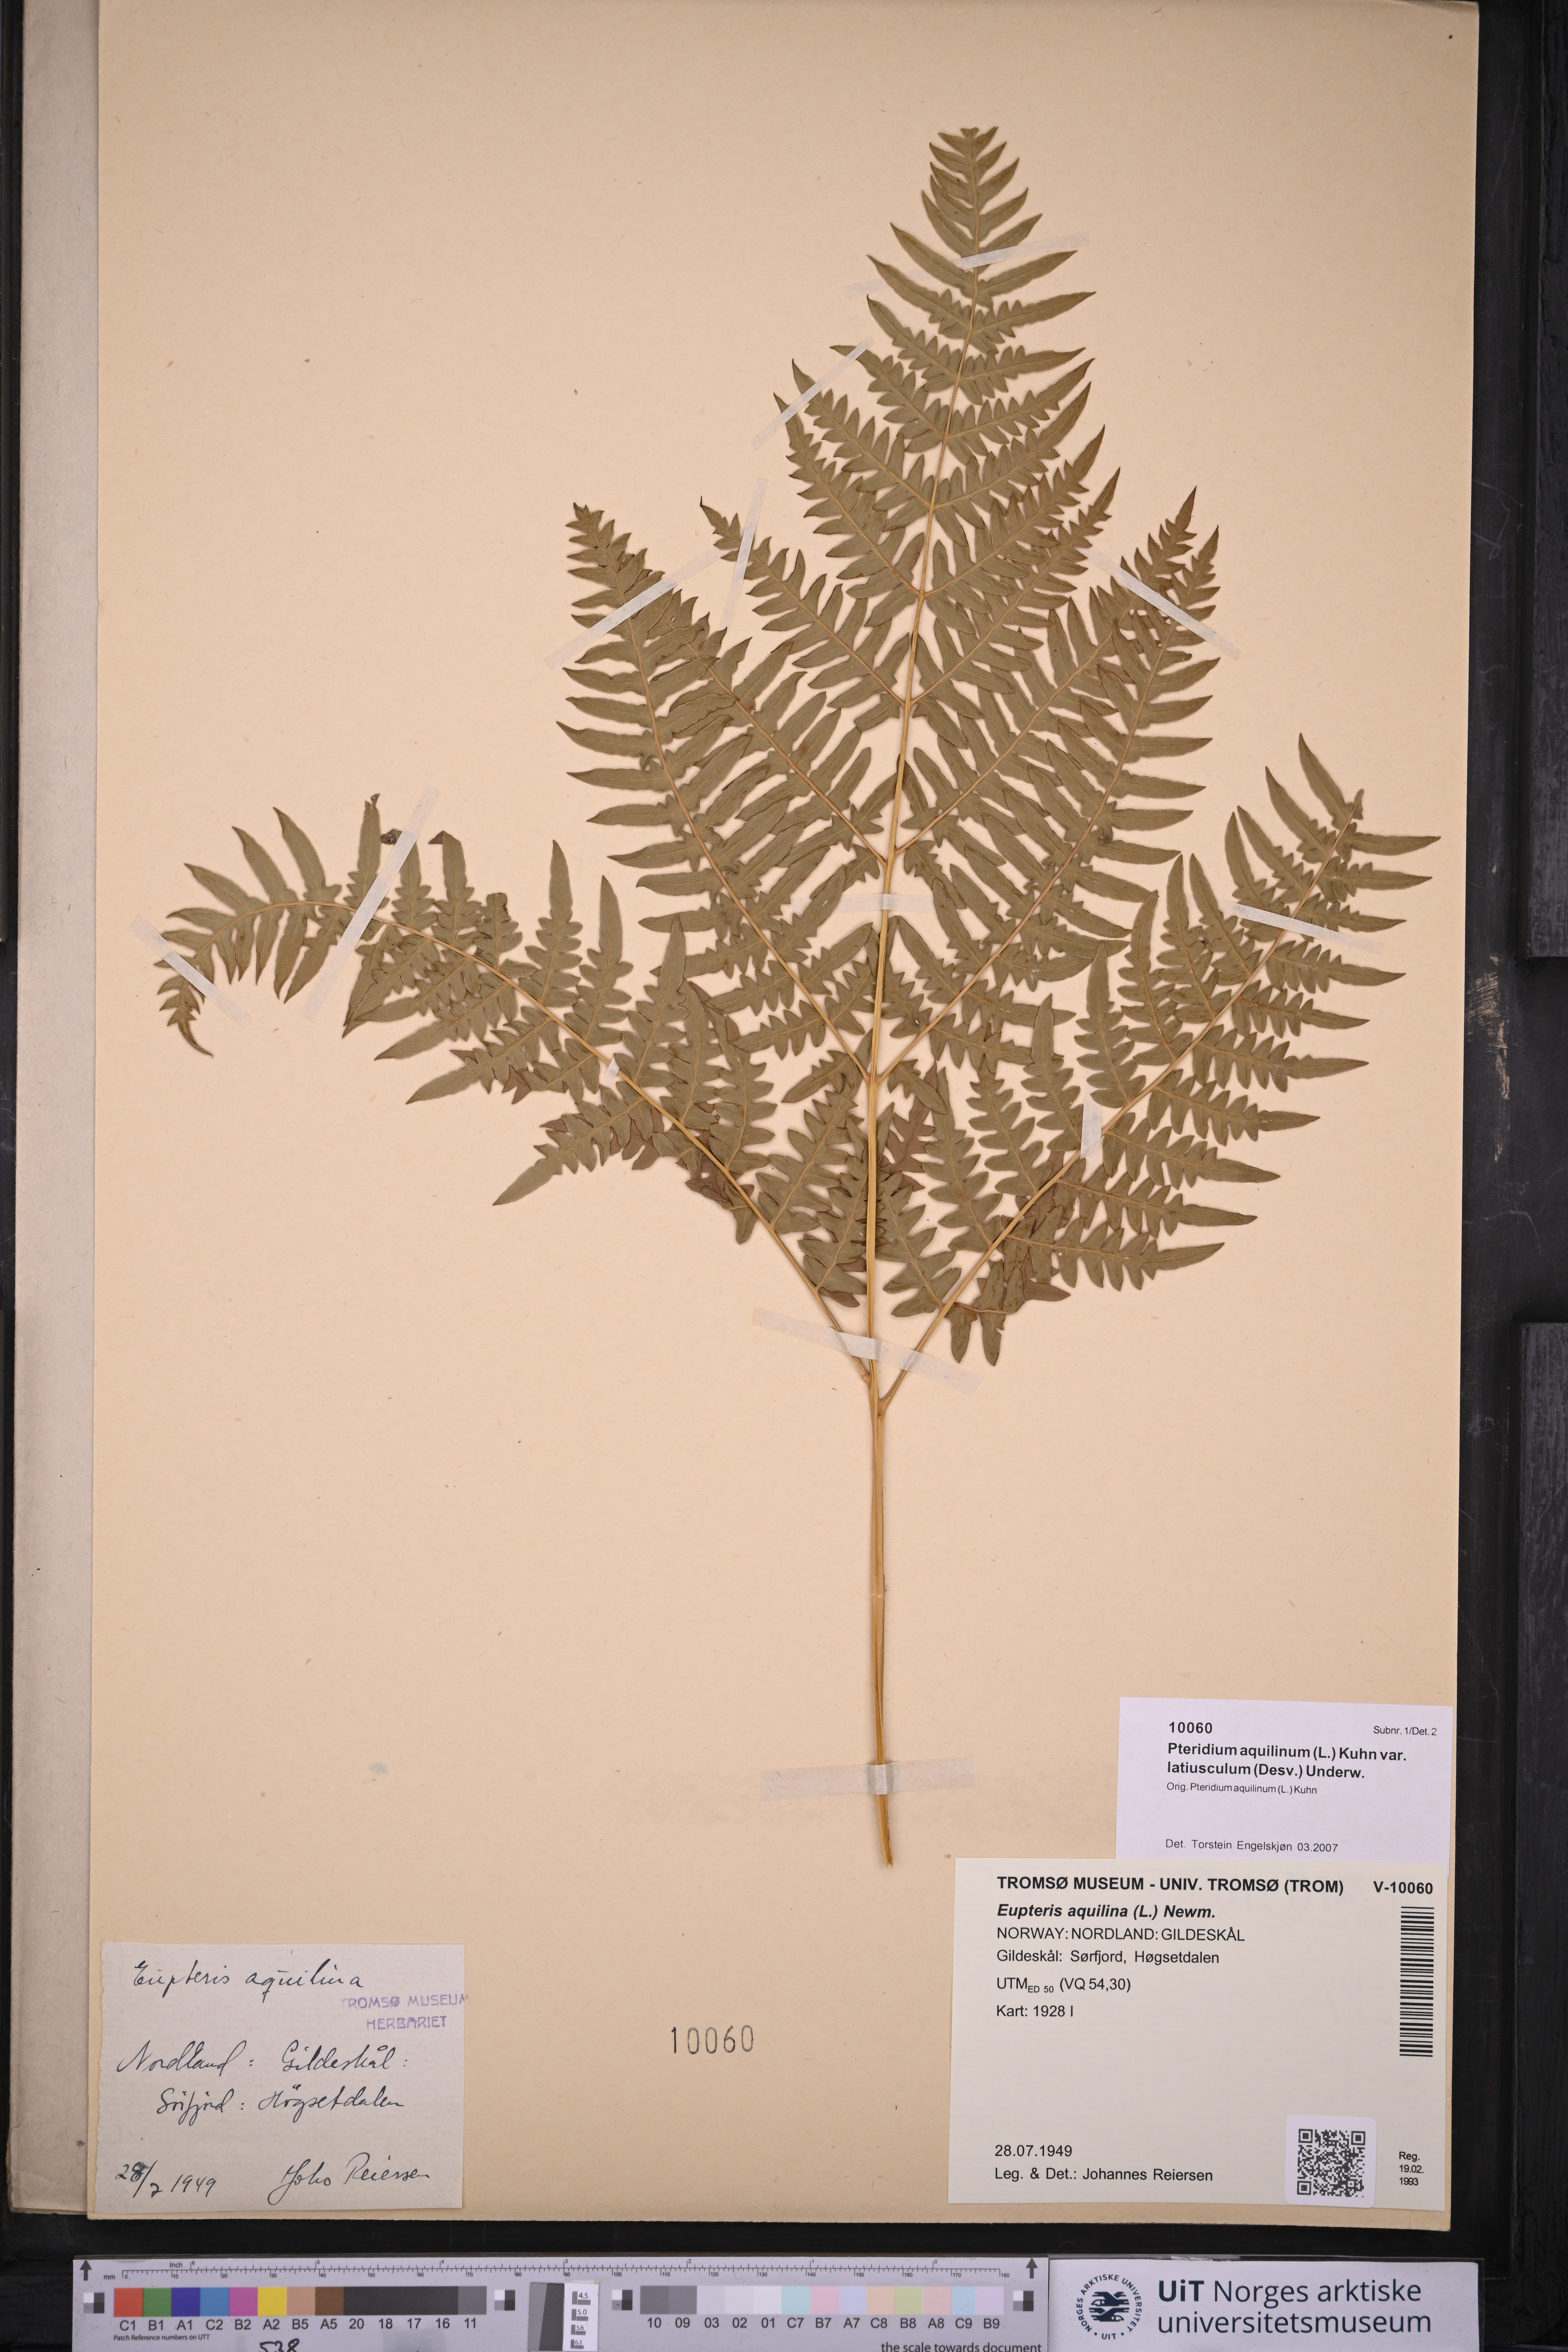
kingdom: Plantae
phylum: Tracheophyta
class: Polypodiopsida
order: Polypodiales
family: Dennstaedtiaceae
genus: Pteridium
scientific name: Pteridium aquilinum
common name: Bracken
